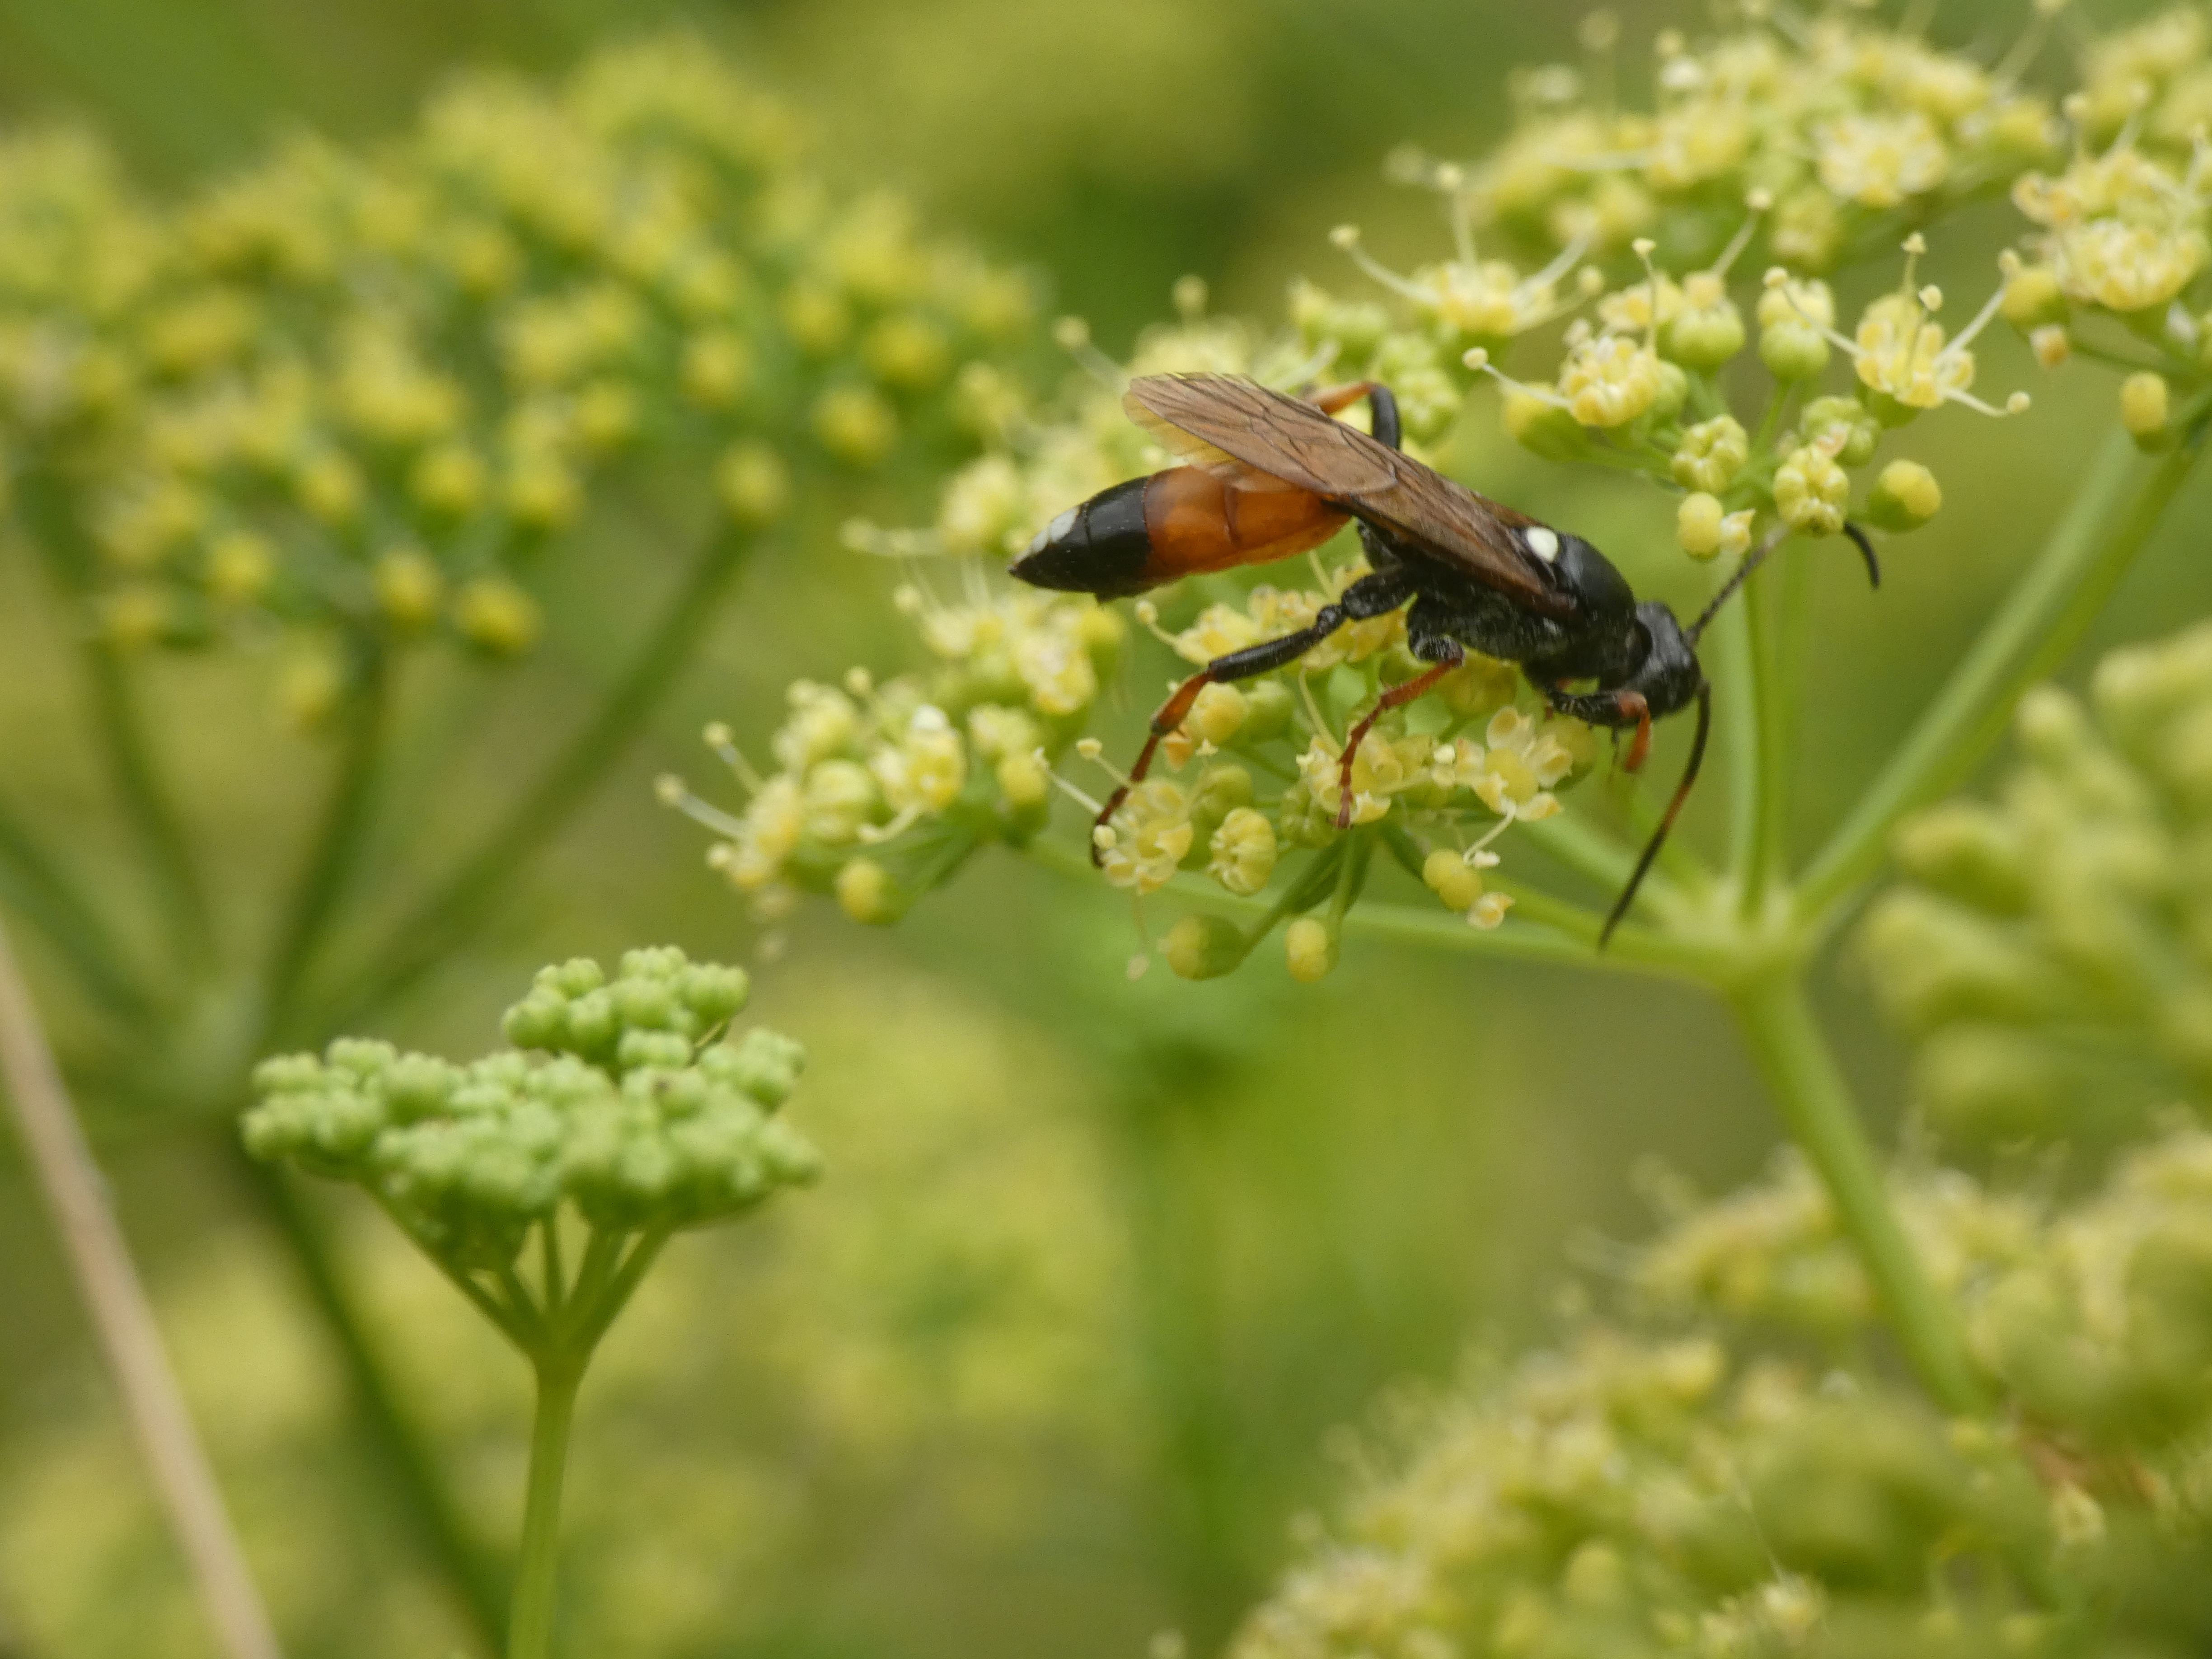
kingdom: Animalia
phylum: Arthropoda
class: Insecta
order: Hymenoptera
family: Ichneumonidae
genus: Ichneumon
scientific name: Ichneumon
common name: Ichneumon
